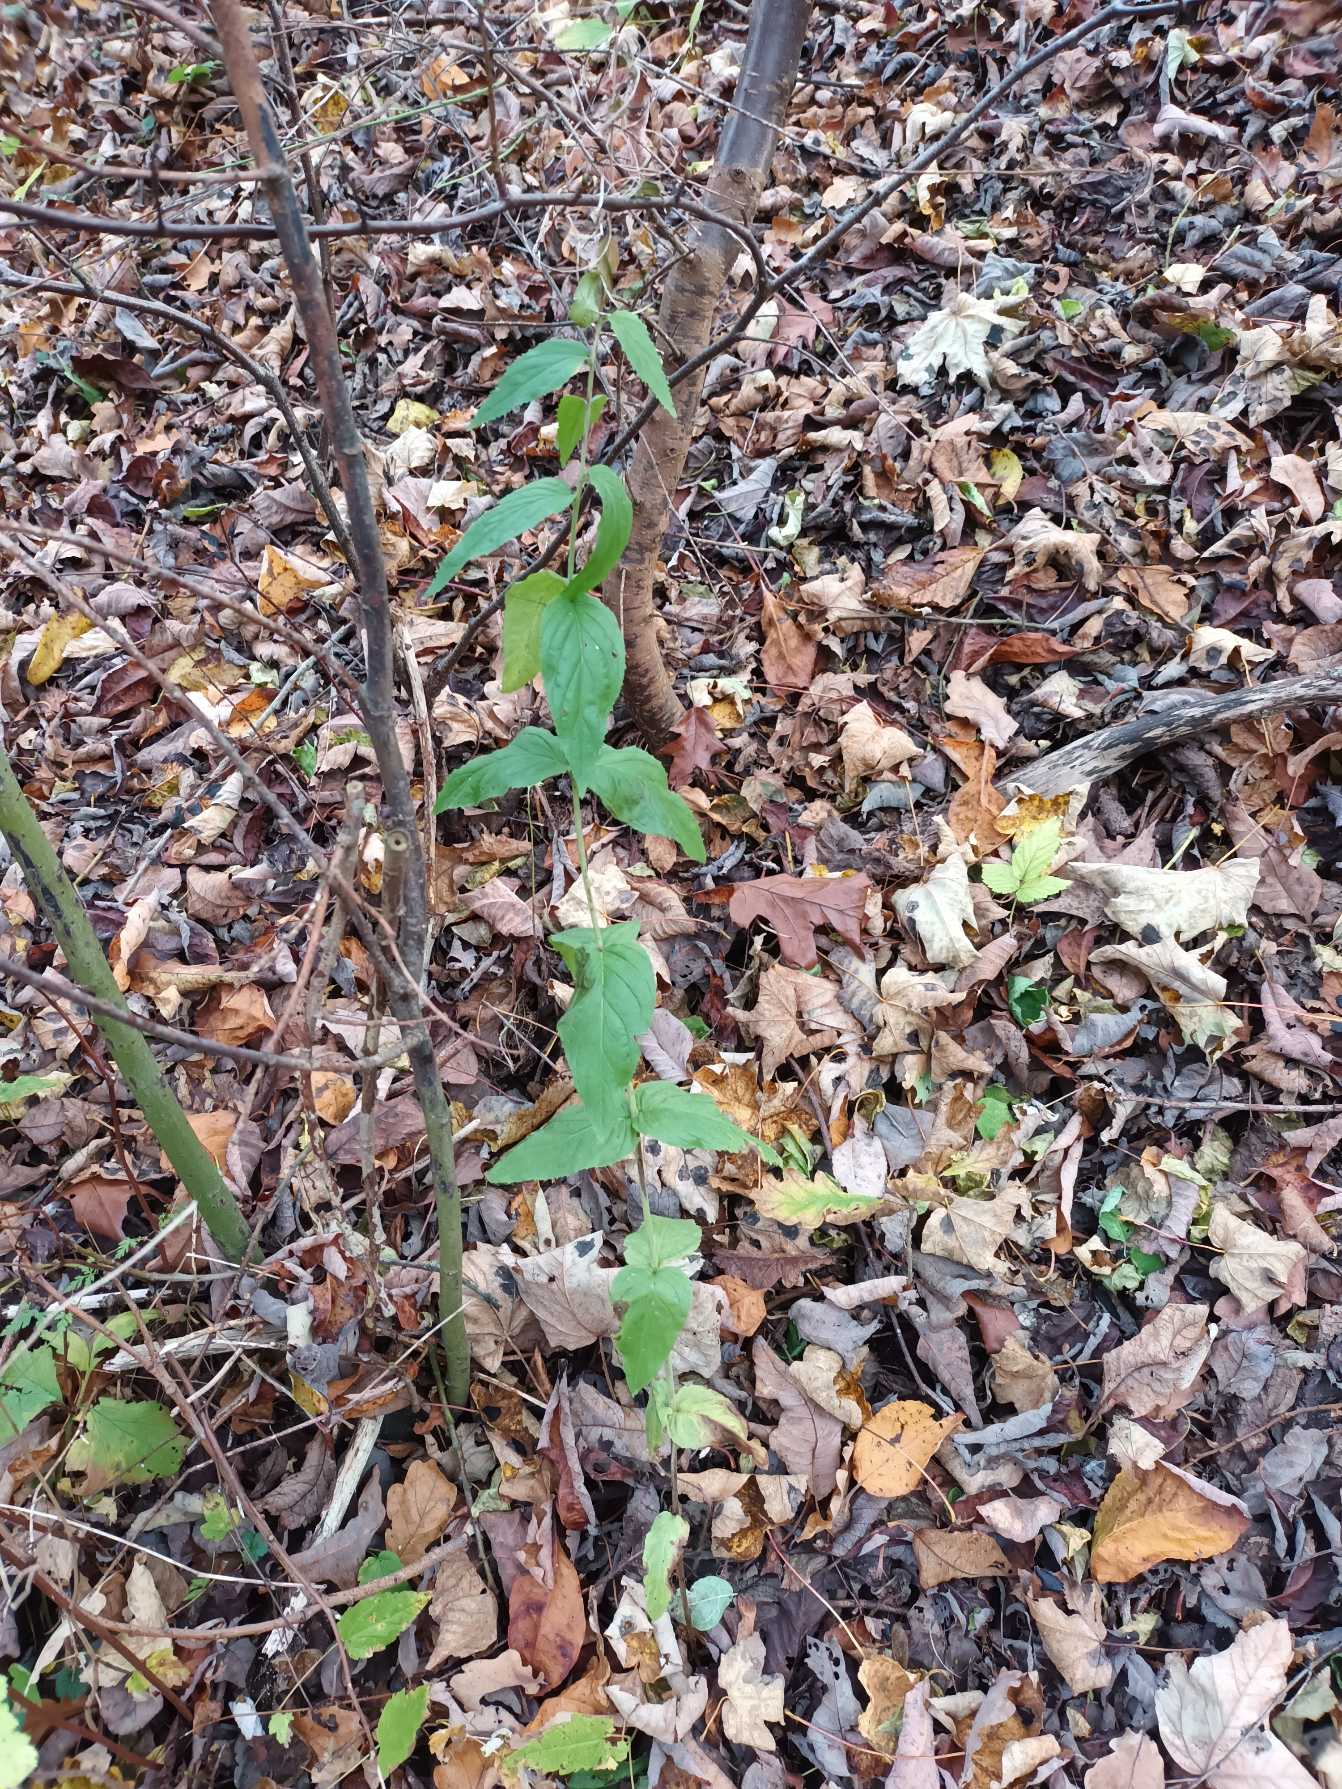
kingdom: Plantae
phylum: Tracheophyta
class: Magnoliopsida
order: Myrtales
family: Onagraceae
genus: Epilobium
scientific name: Epilobium montanum
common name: Glat dueurt
